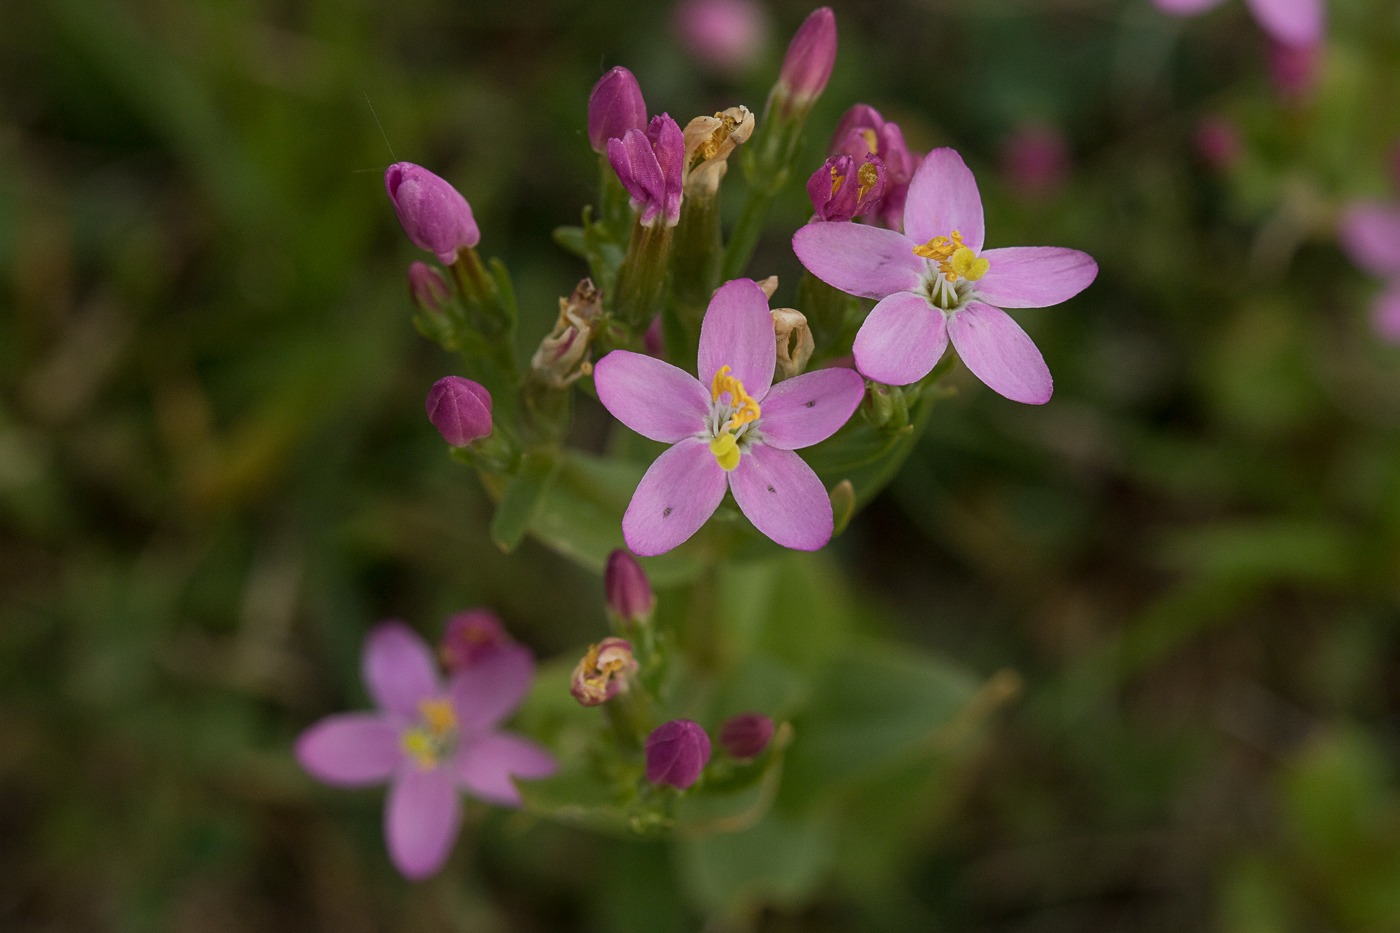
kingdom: Plantae
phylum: Tracheophyta
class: Magnoliopsida
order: Gentianales
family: Gentianaceae
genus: Centaurium
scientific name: Centaurium littorale
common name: Strand-tusindgylden
